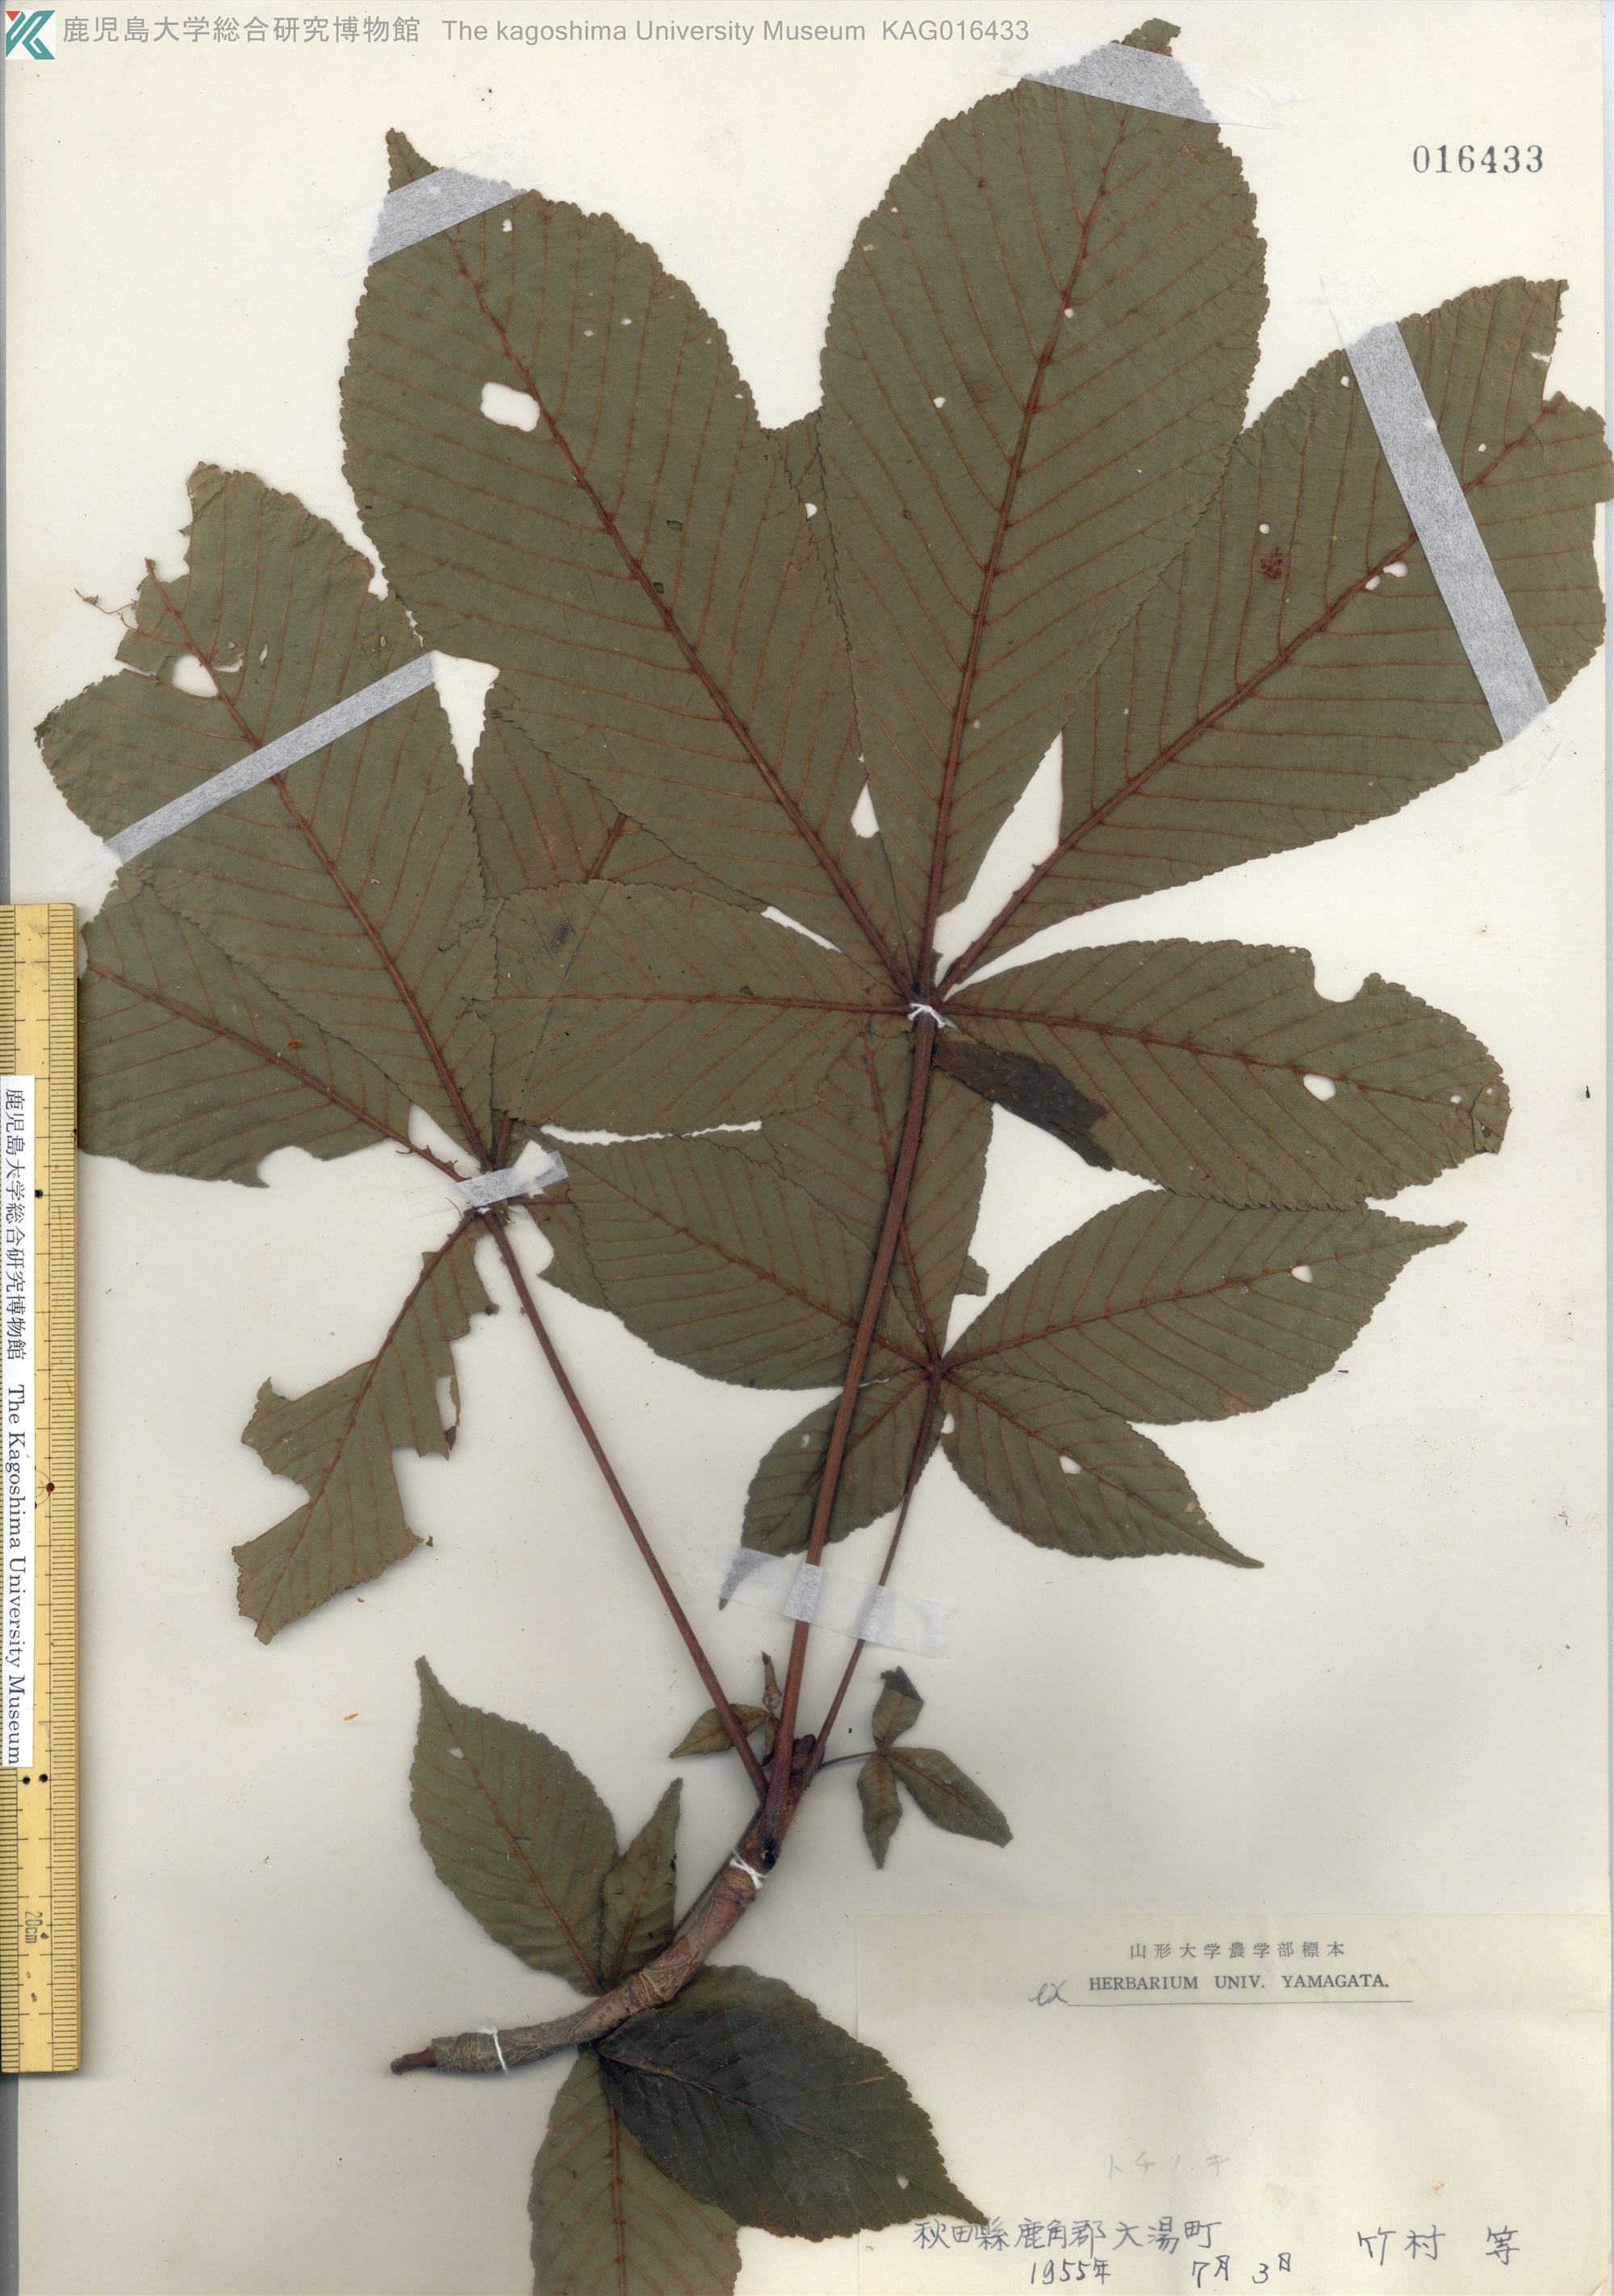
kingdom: Plantae
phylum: Tracheophyta
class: Magnoliopsida
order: Sapindales
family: Sapindaceae
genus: Aesculus
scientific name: Aesculus turbinata
